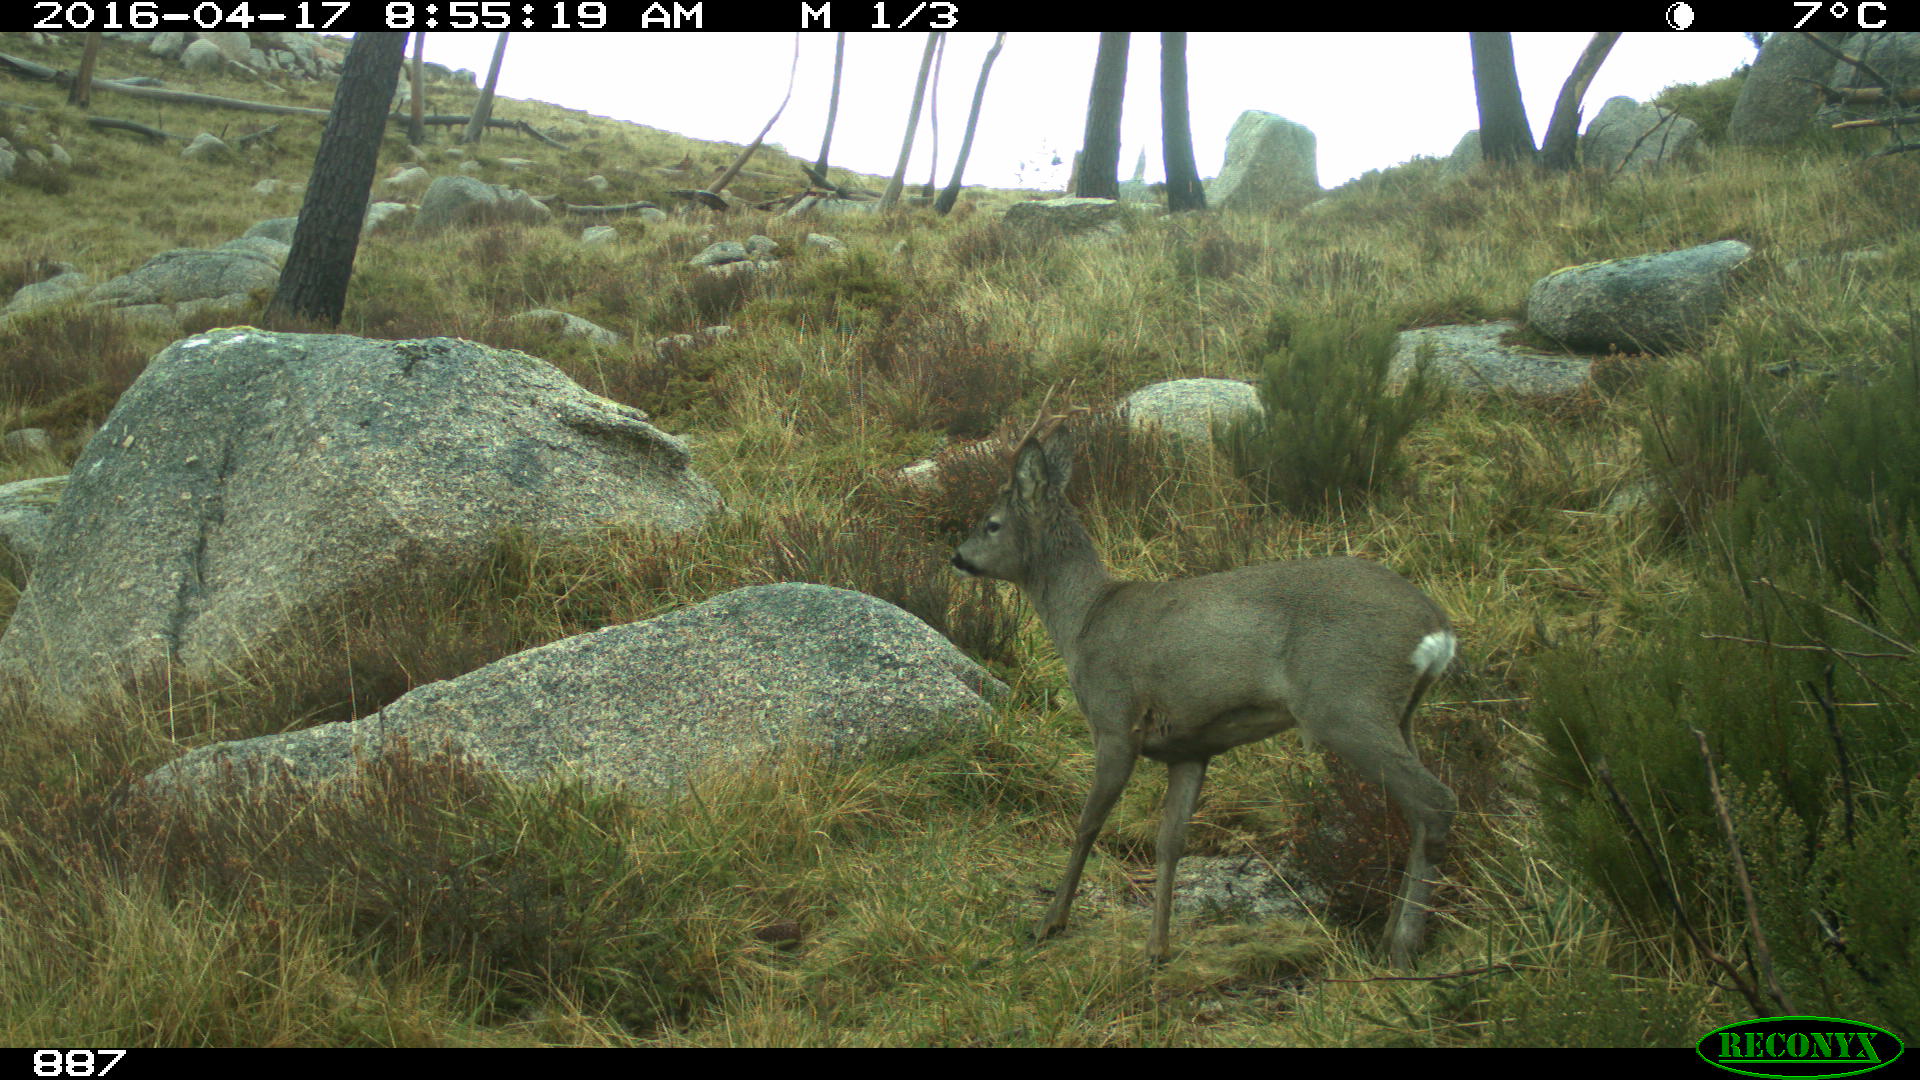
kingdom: Animalia
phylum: Chordata
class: Mammalia
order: Artiodactyla
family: Cervidae
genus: Capreolus
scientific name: Capreolus capreolus
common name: Western roe deer
